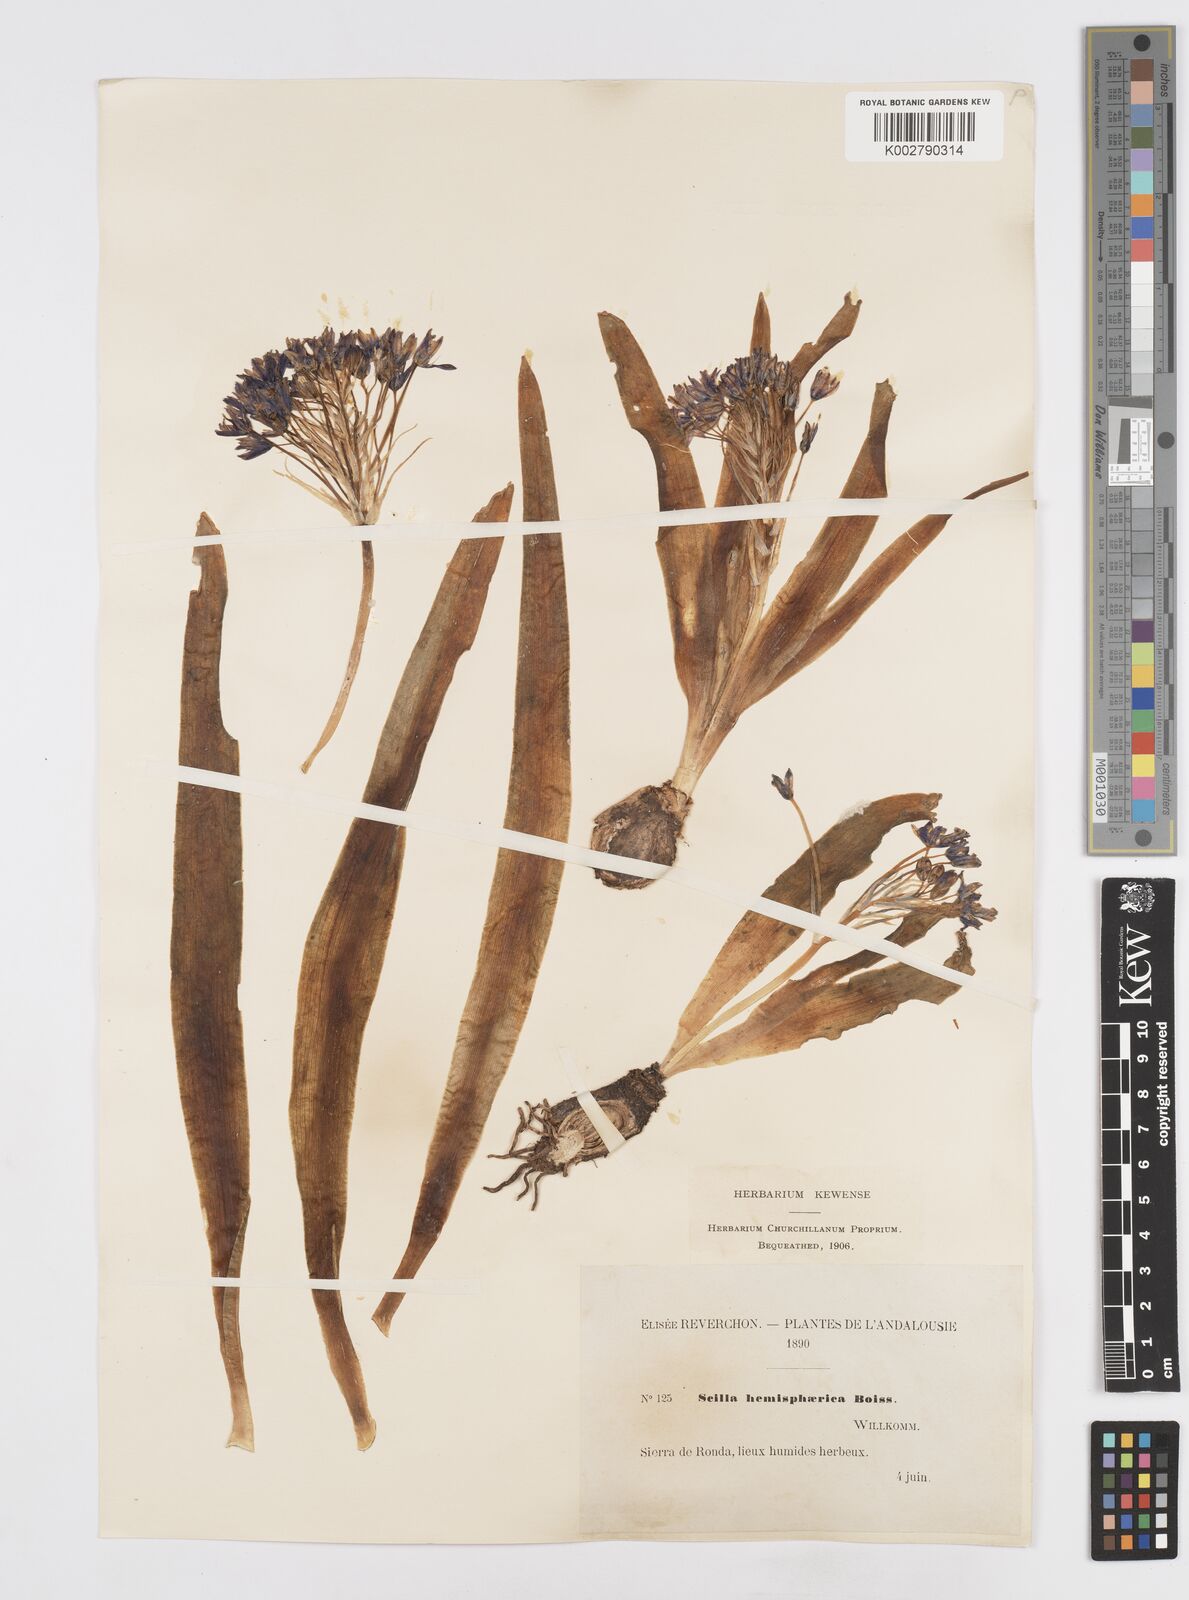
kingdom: Plantae
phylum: Tracheophyta
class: Liliopsida
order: Asparagales
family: Asparagaceae
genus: Scilla
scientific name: Scilla peruviana
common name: Portuguese squill
